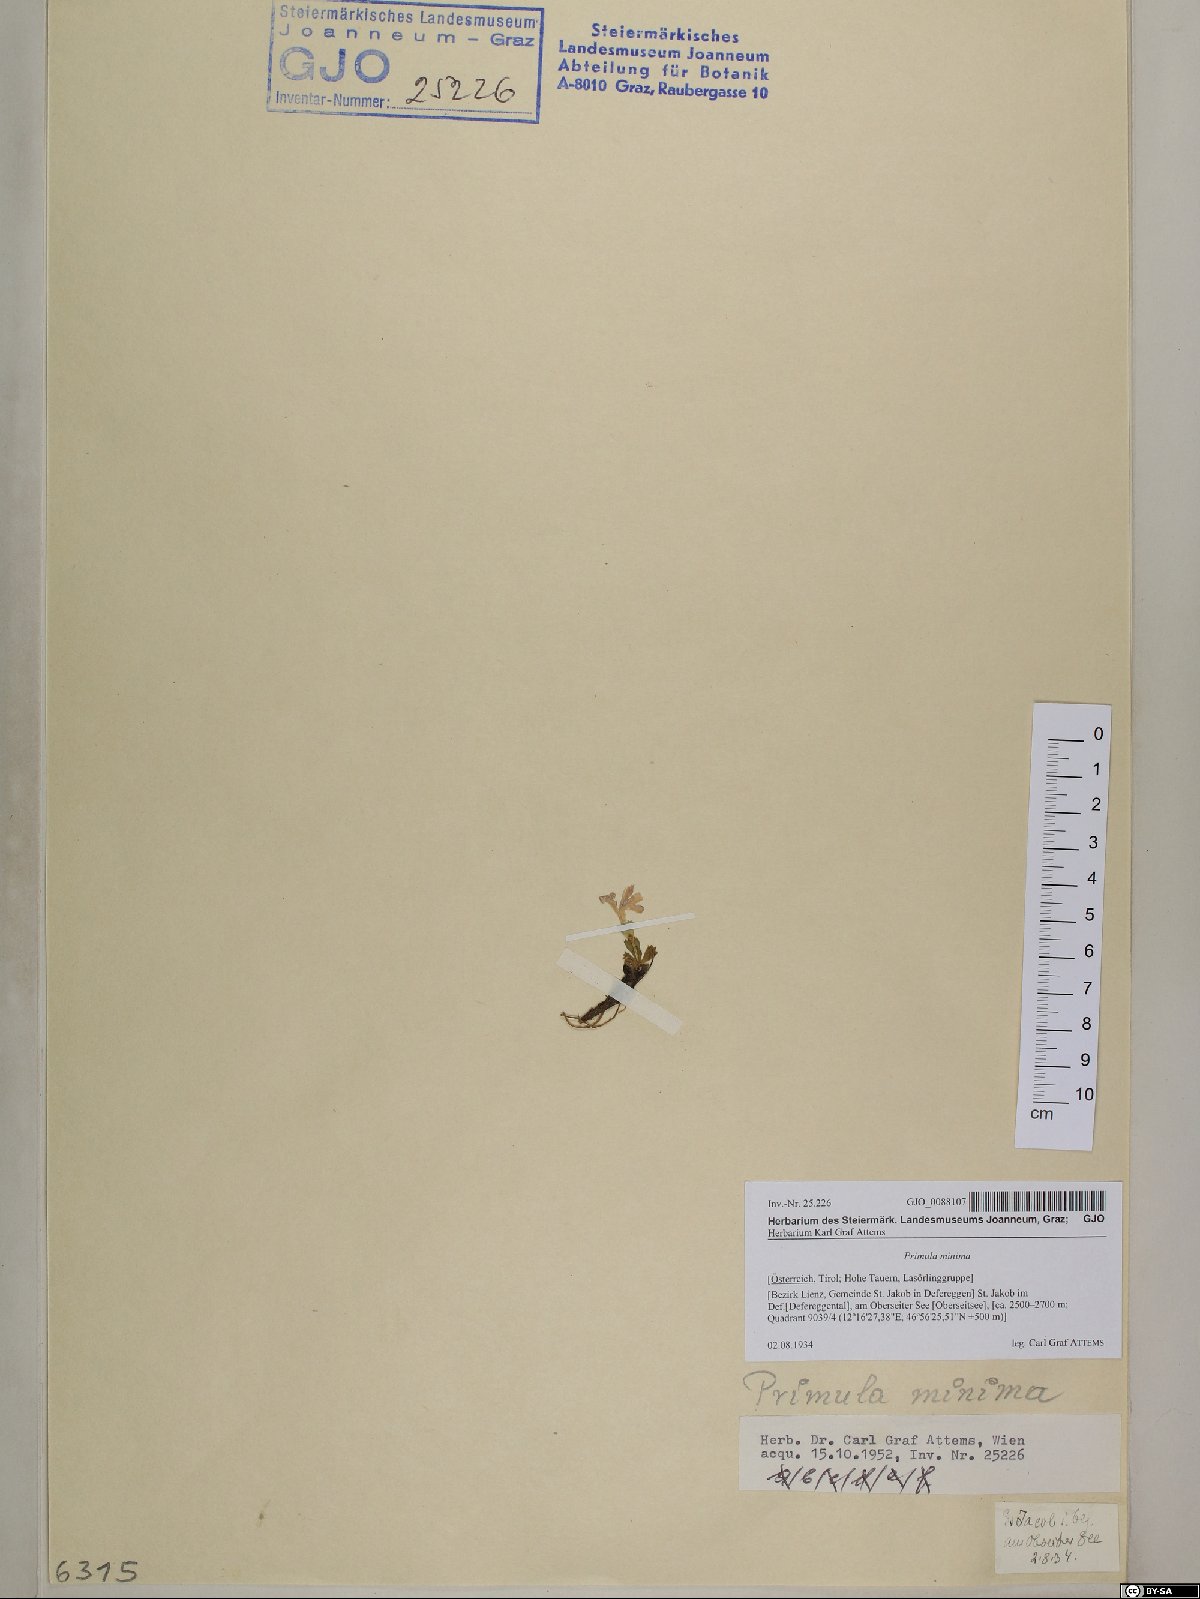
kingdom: Plantae
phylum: Tracheophyta
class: Magnoliopsida
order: Ericales
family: Primulaceae
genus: Primula
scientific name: Primula minima
